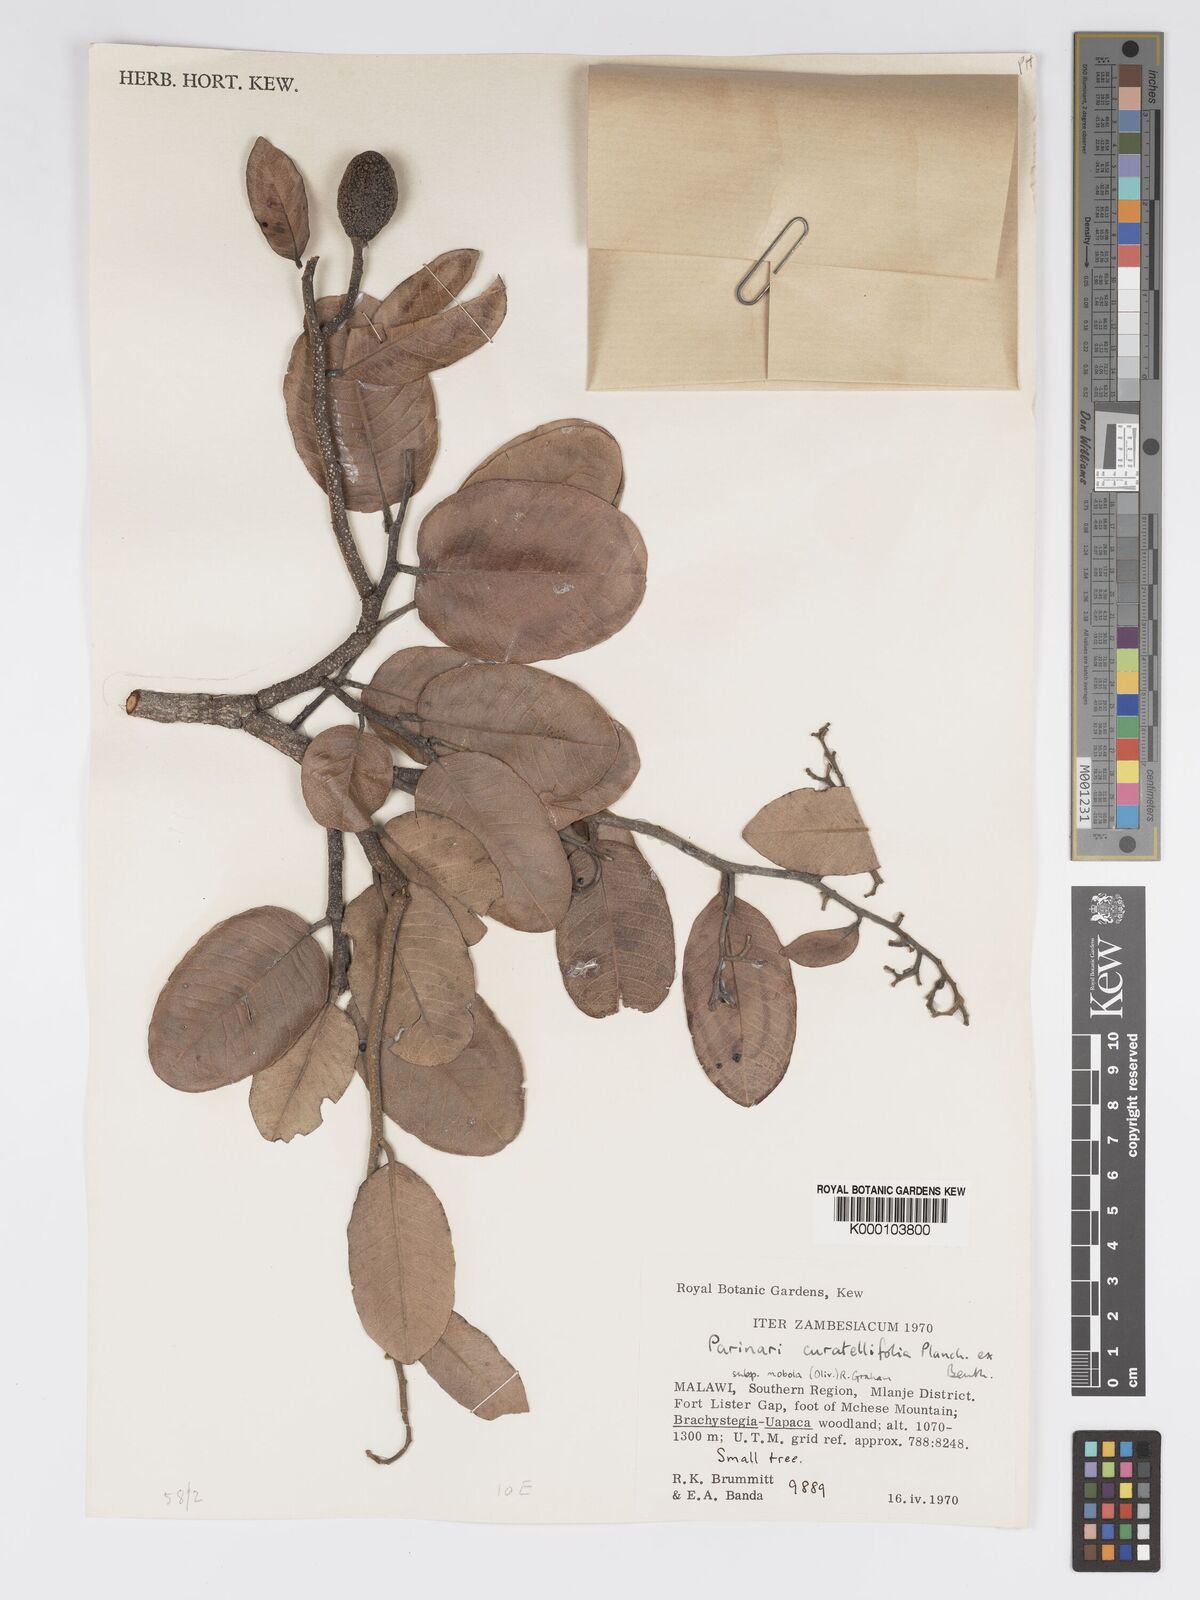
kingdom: Plantae
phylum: Tracheophyta
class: Magnoliopsida
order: Malpighiales
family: Chrysobalanaceae
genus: Parinari
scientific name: Parinari curatellifolia
